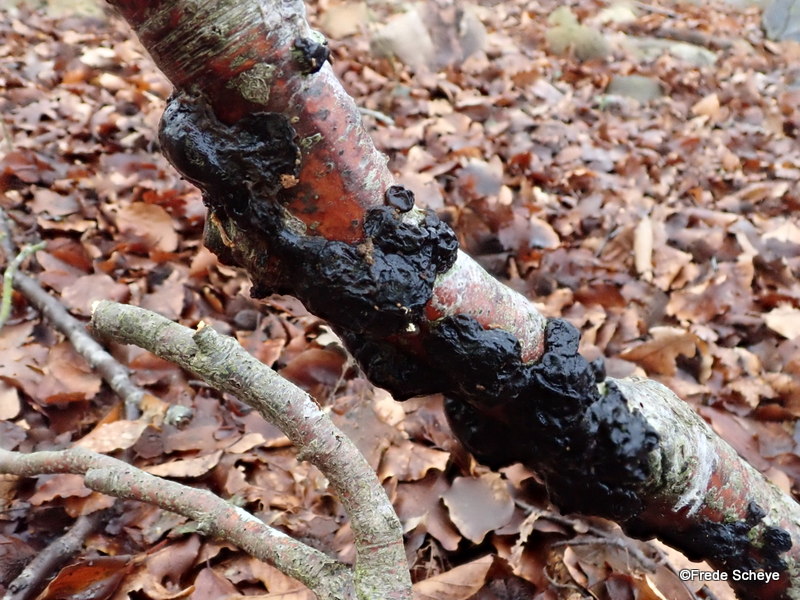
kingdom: Fungi
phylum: Basidiomycota
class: Agaricomycetes
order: Auriculariales
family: Auriculariaceae
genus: Exidia
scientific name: Exidia nigricans
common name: almindelig bævretop
